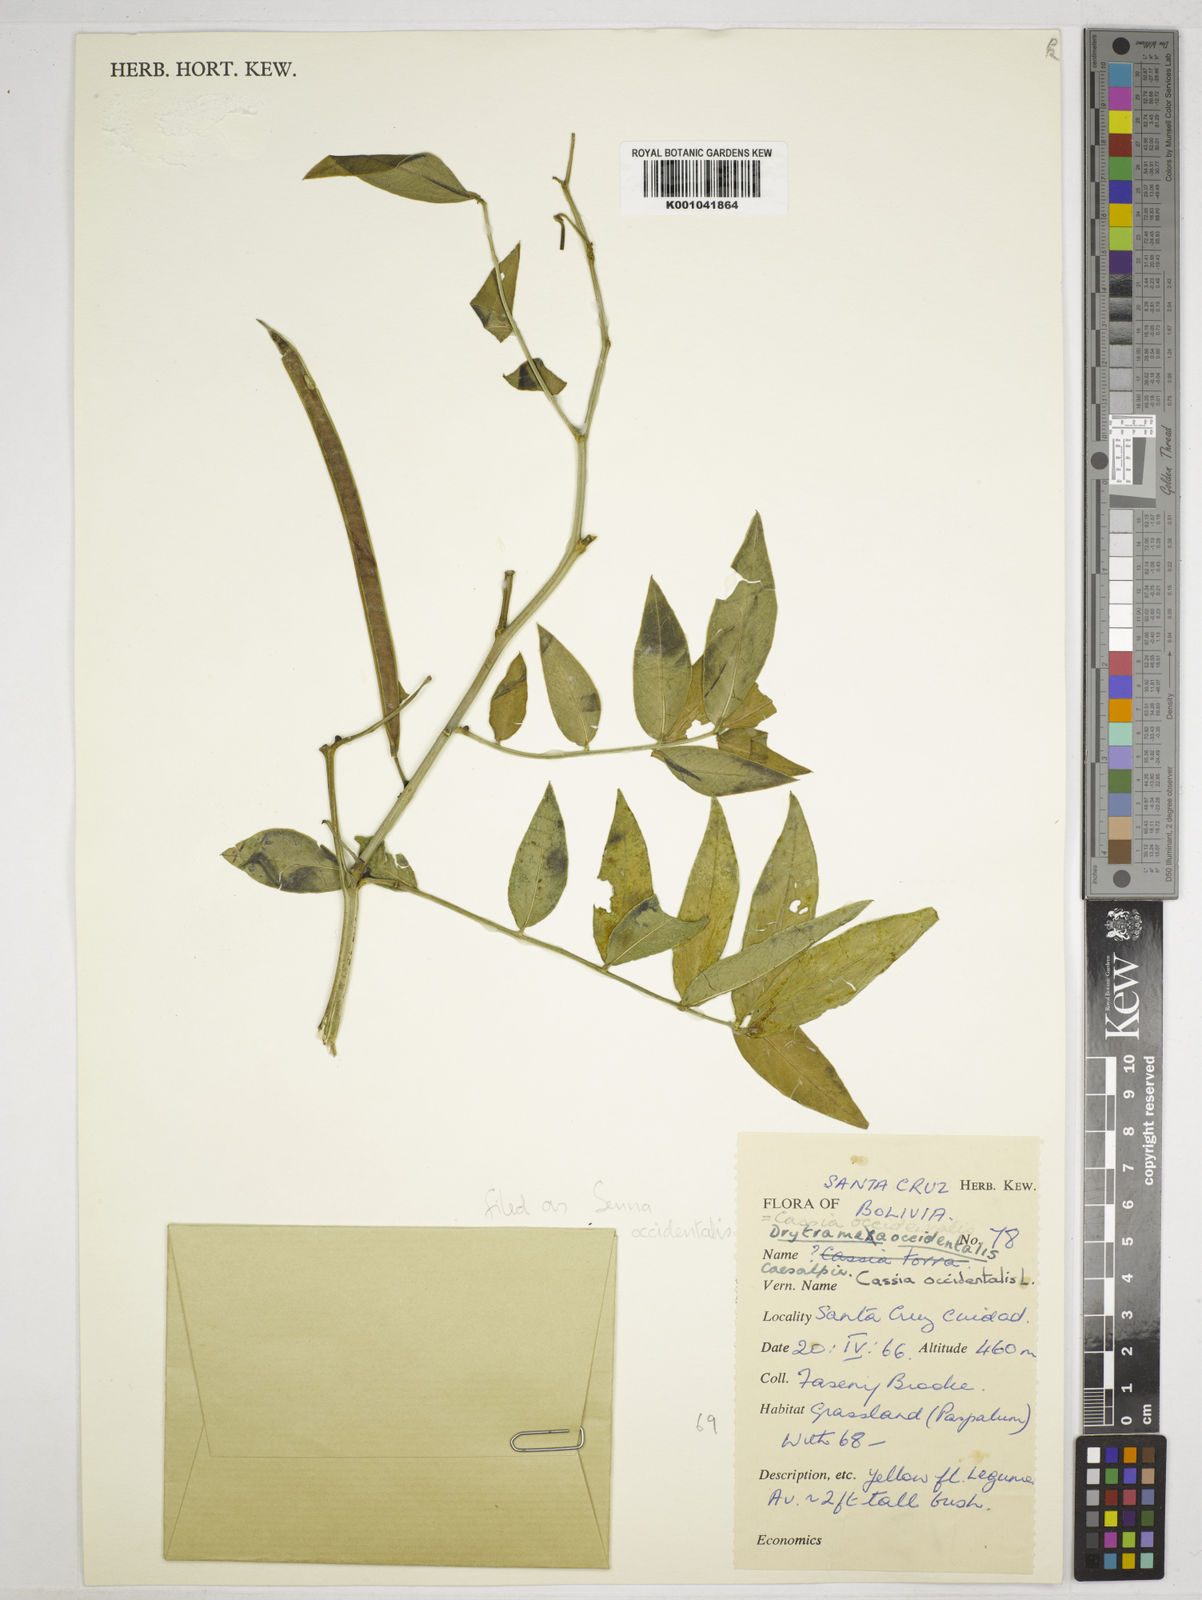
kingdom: Plantae
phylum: Tracheophyta
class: Magnoliopsida
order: Fabales
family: Fabaceae
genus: Senna
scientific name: Senna occidentalis
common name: Septicweed
